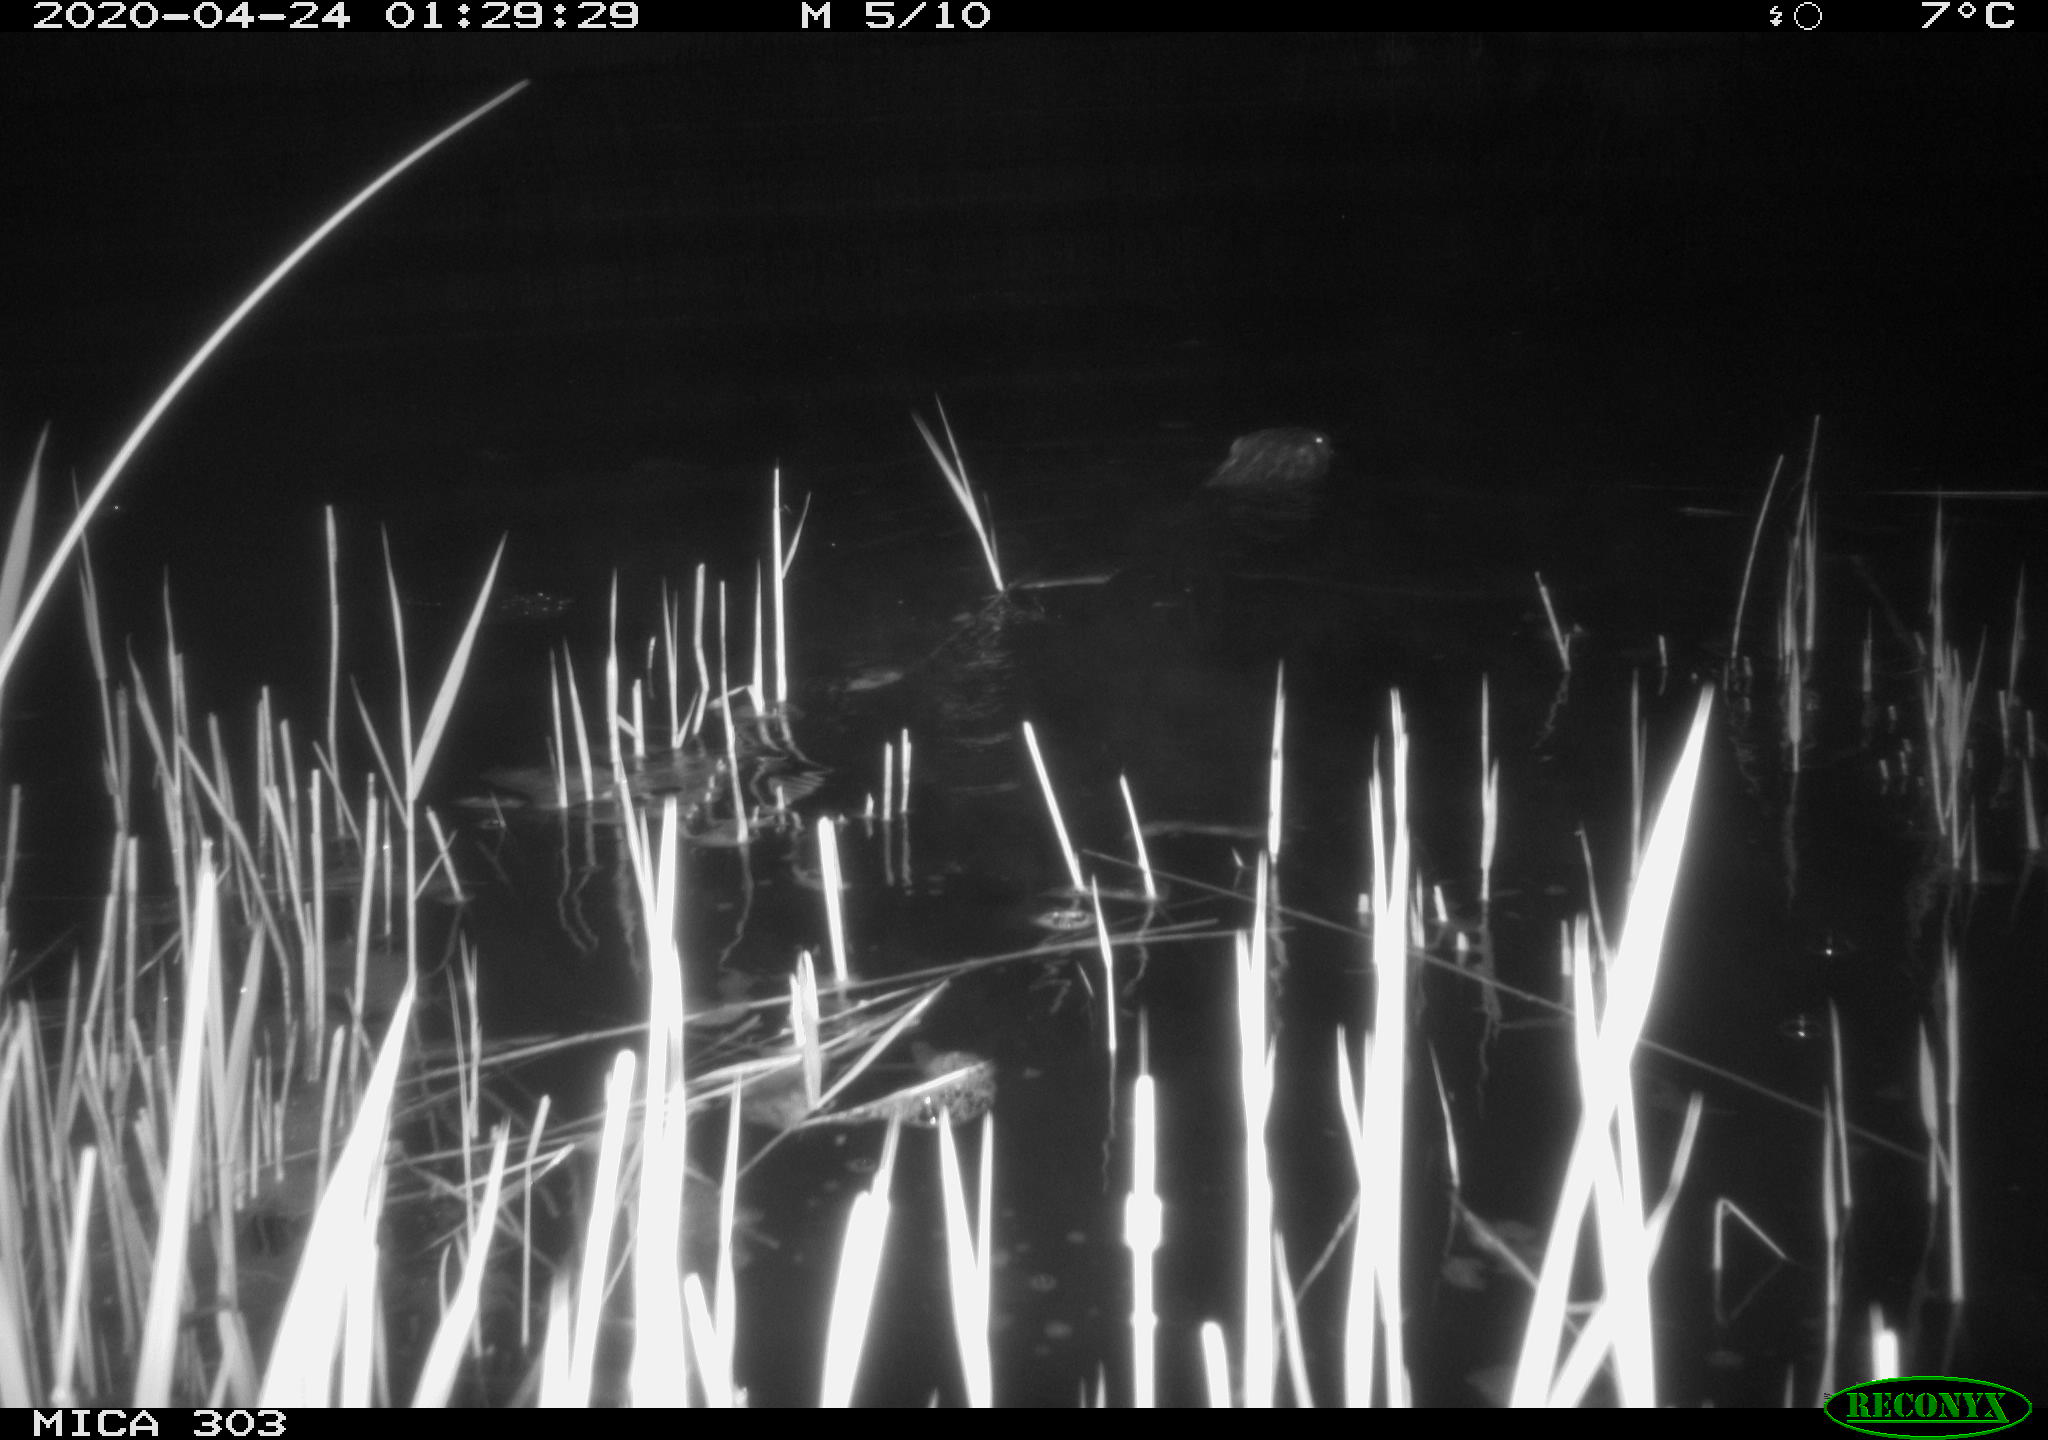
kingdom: Animalia
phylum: Chordata
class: Mammalia
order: Rodentia
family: Castoridae
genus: Castor
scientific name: Castor fiber
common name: Eurasian beaver
